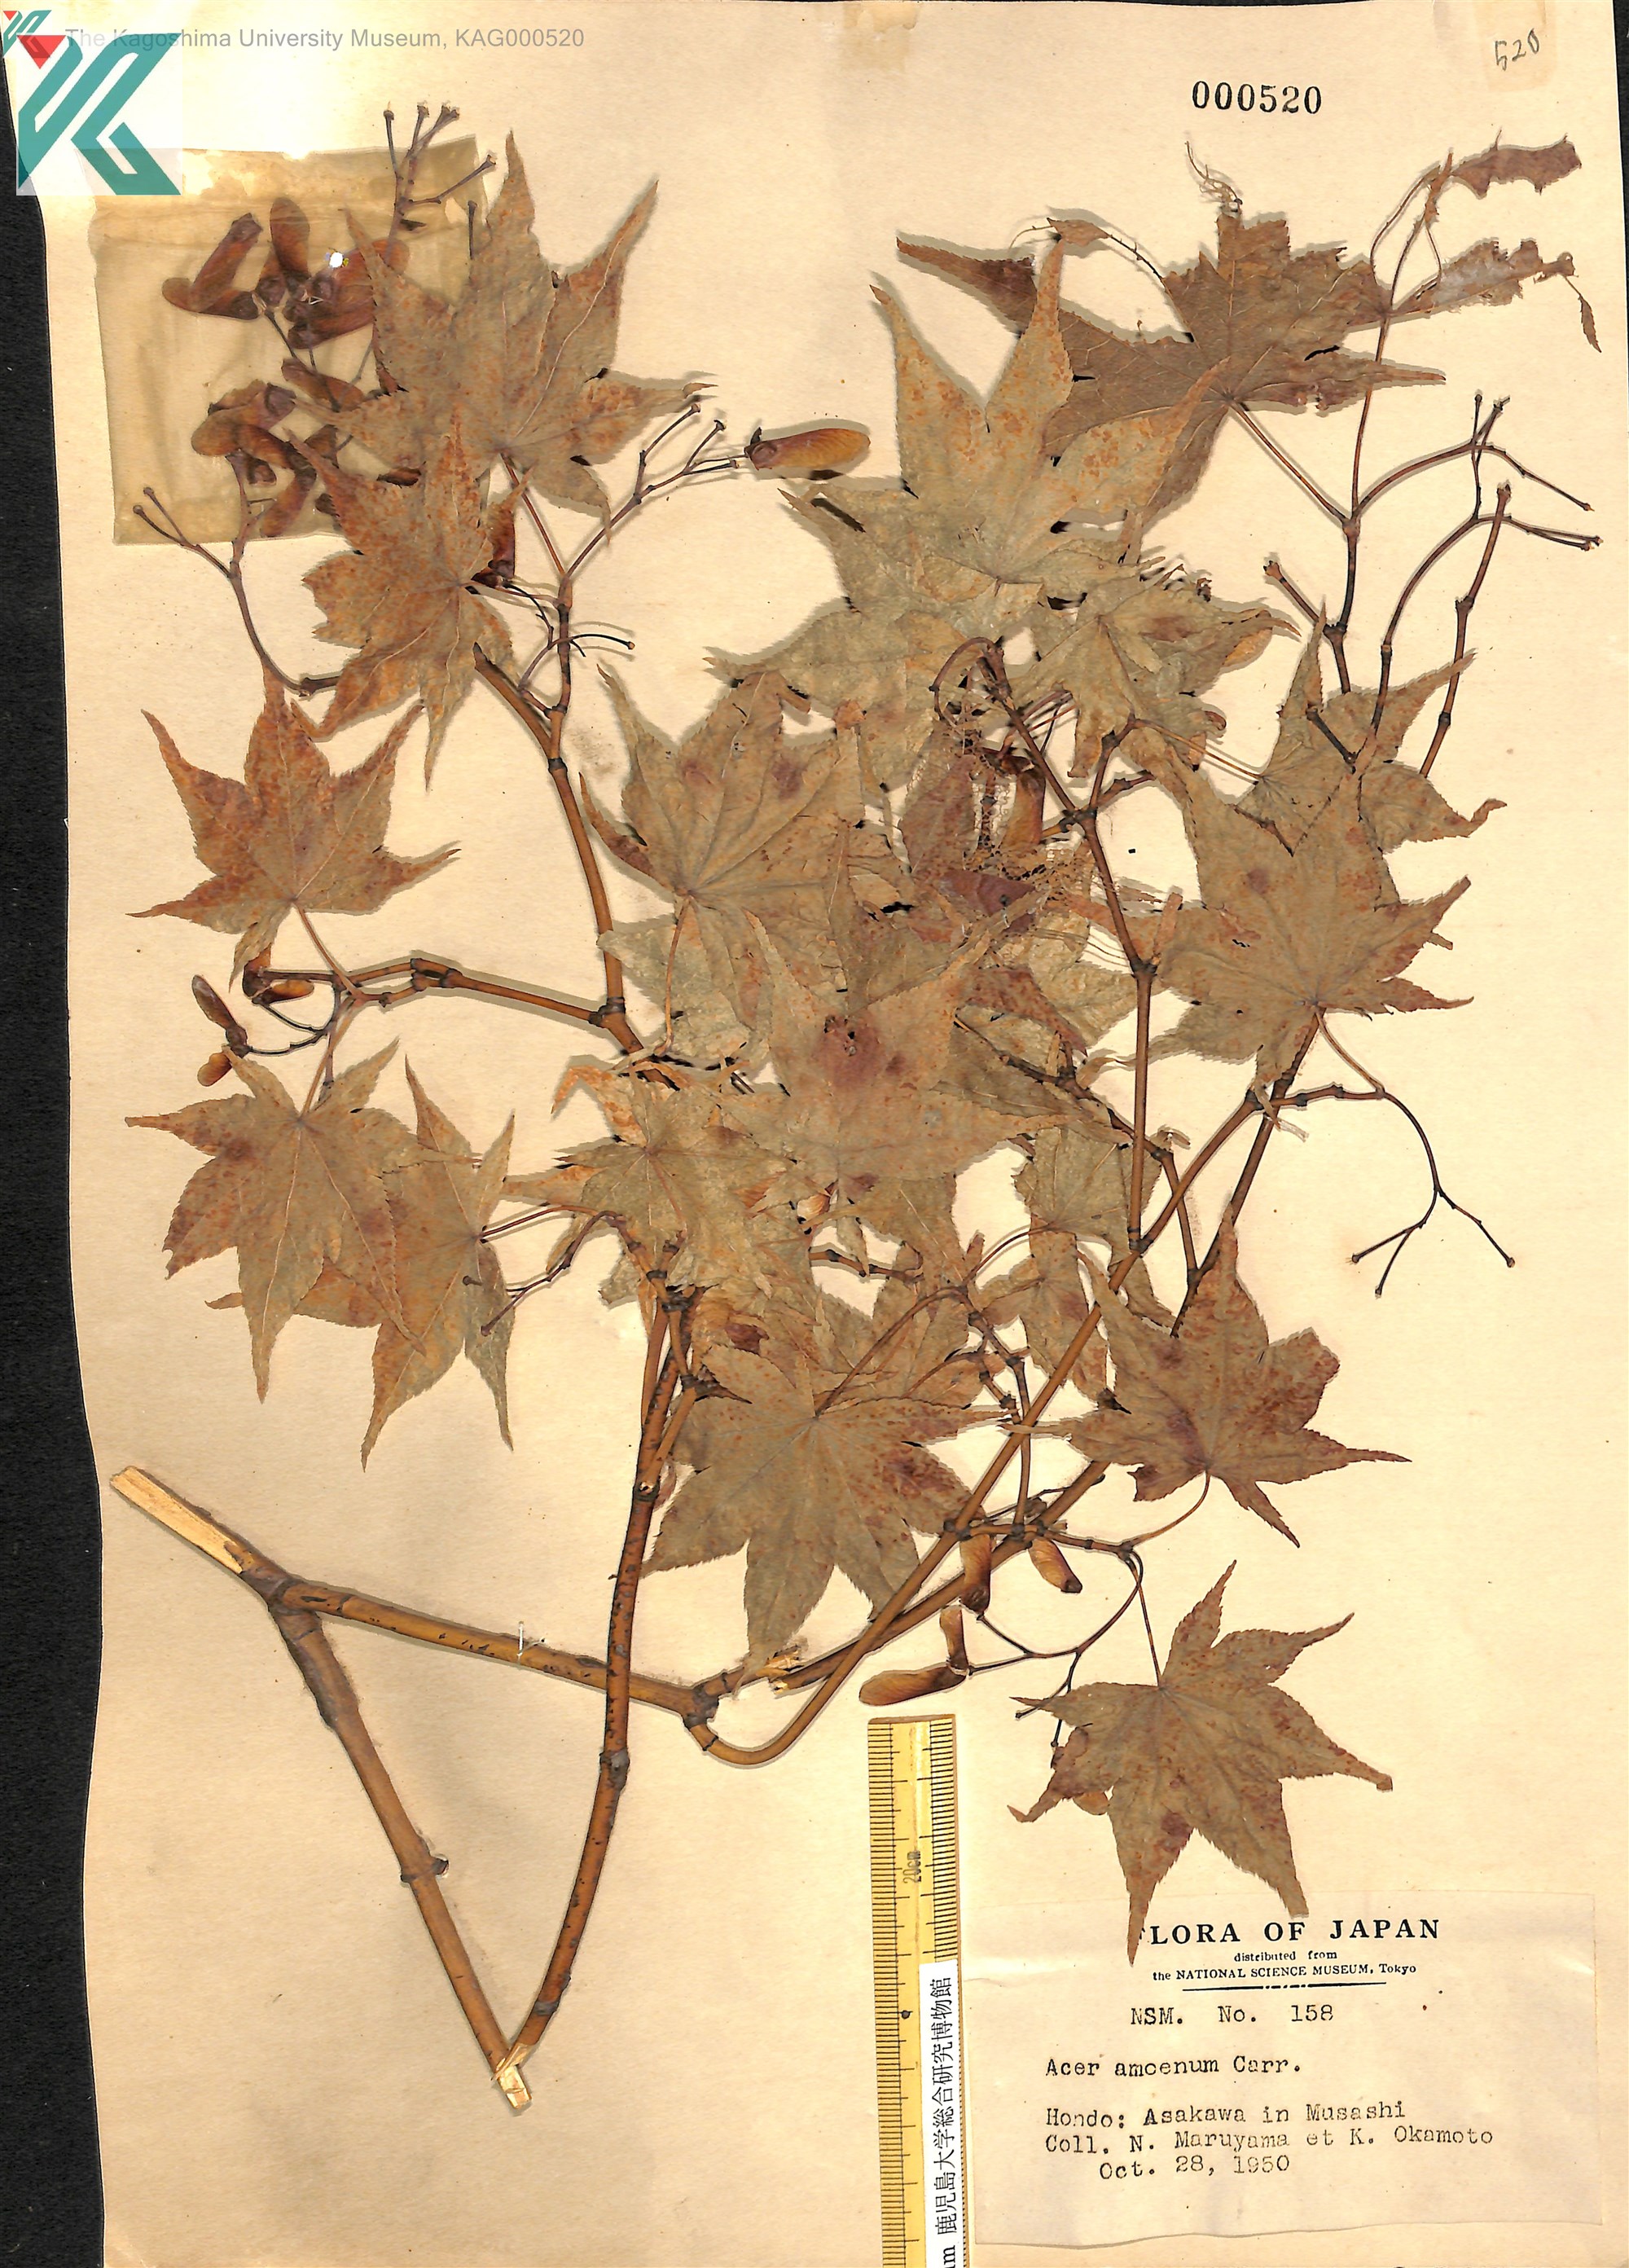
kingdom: Plantae
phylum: Tracheophyta
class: Magnoliopsida
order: Sapindales
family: Sapindaceae
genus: Acer
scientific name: Acer palmatum
